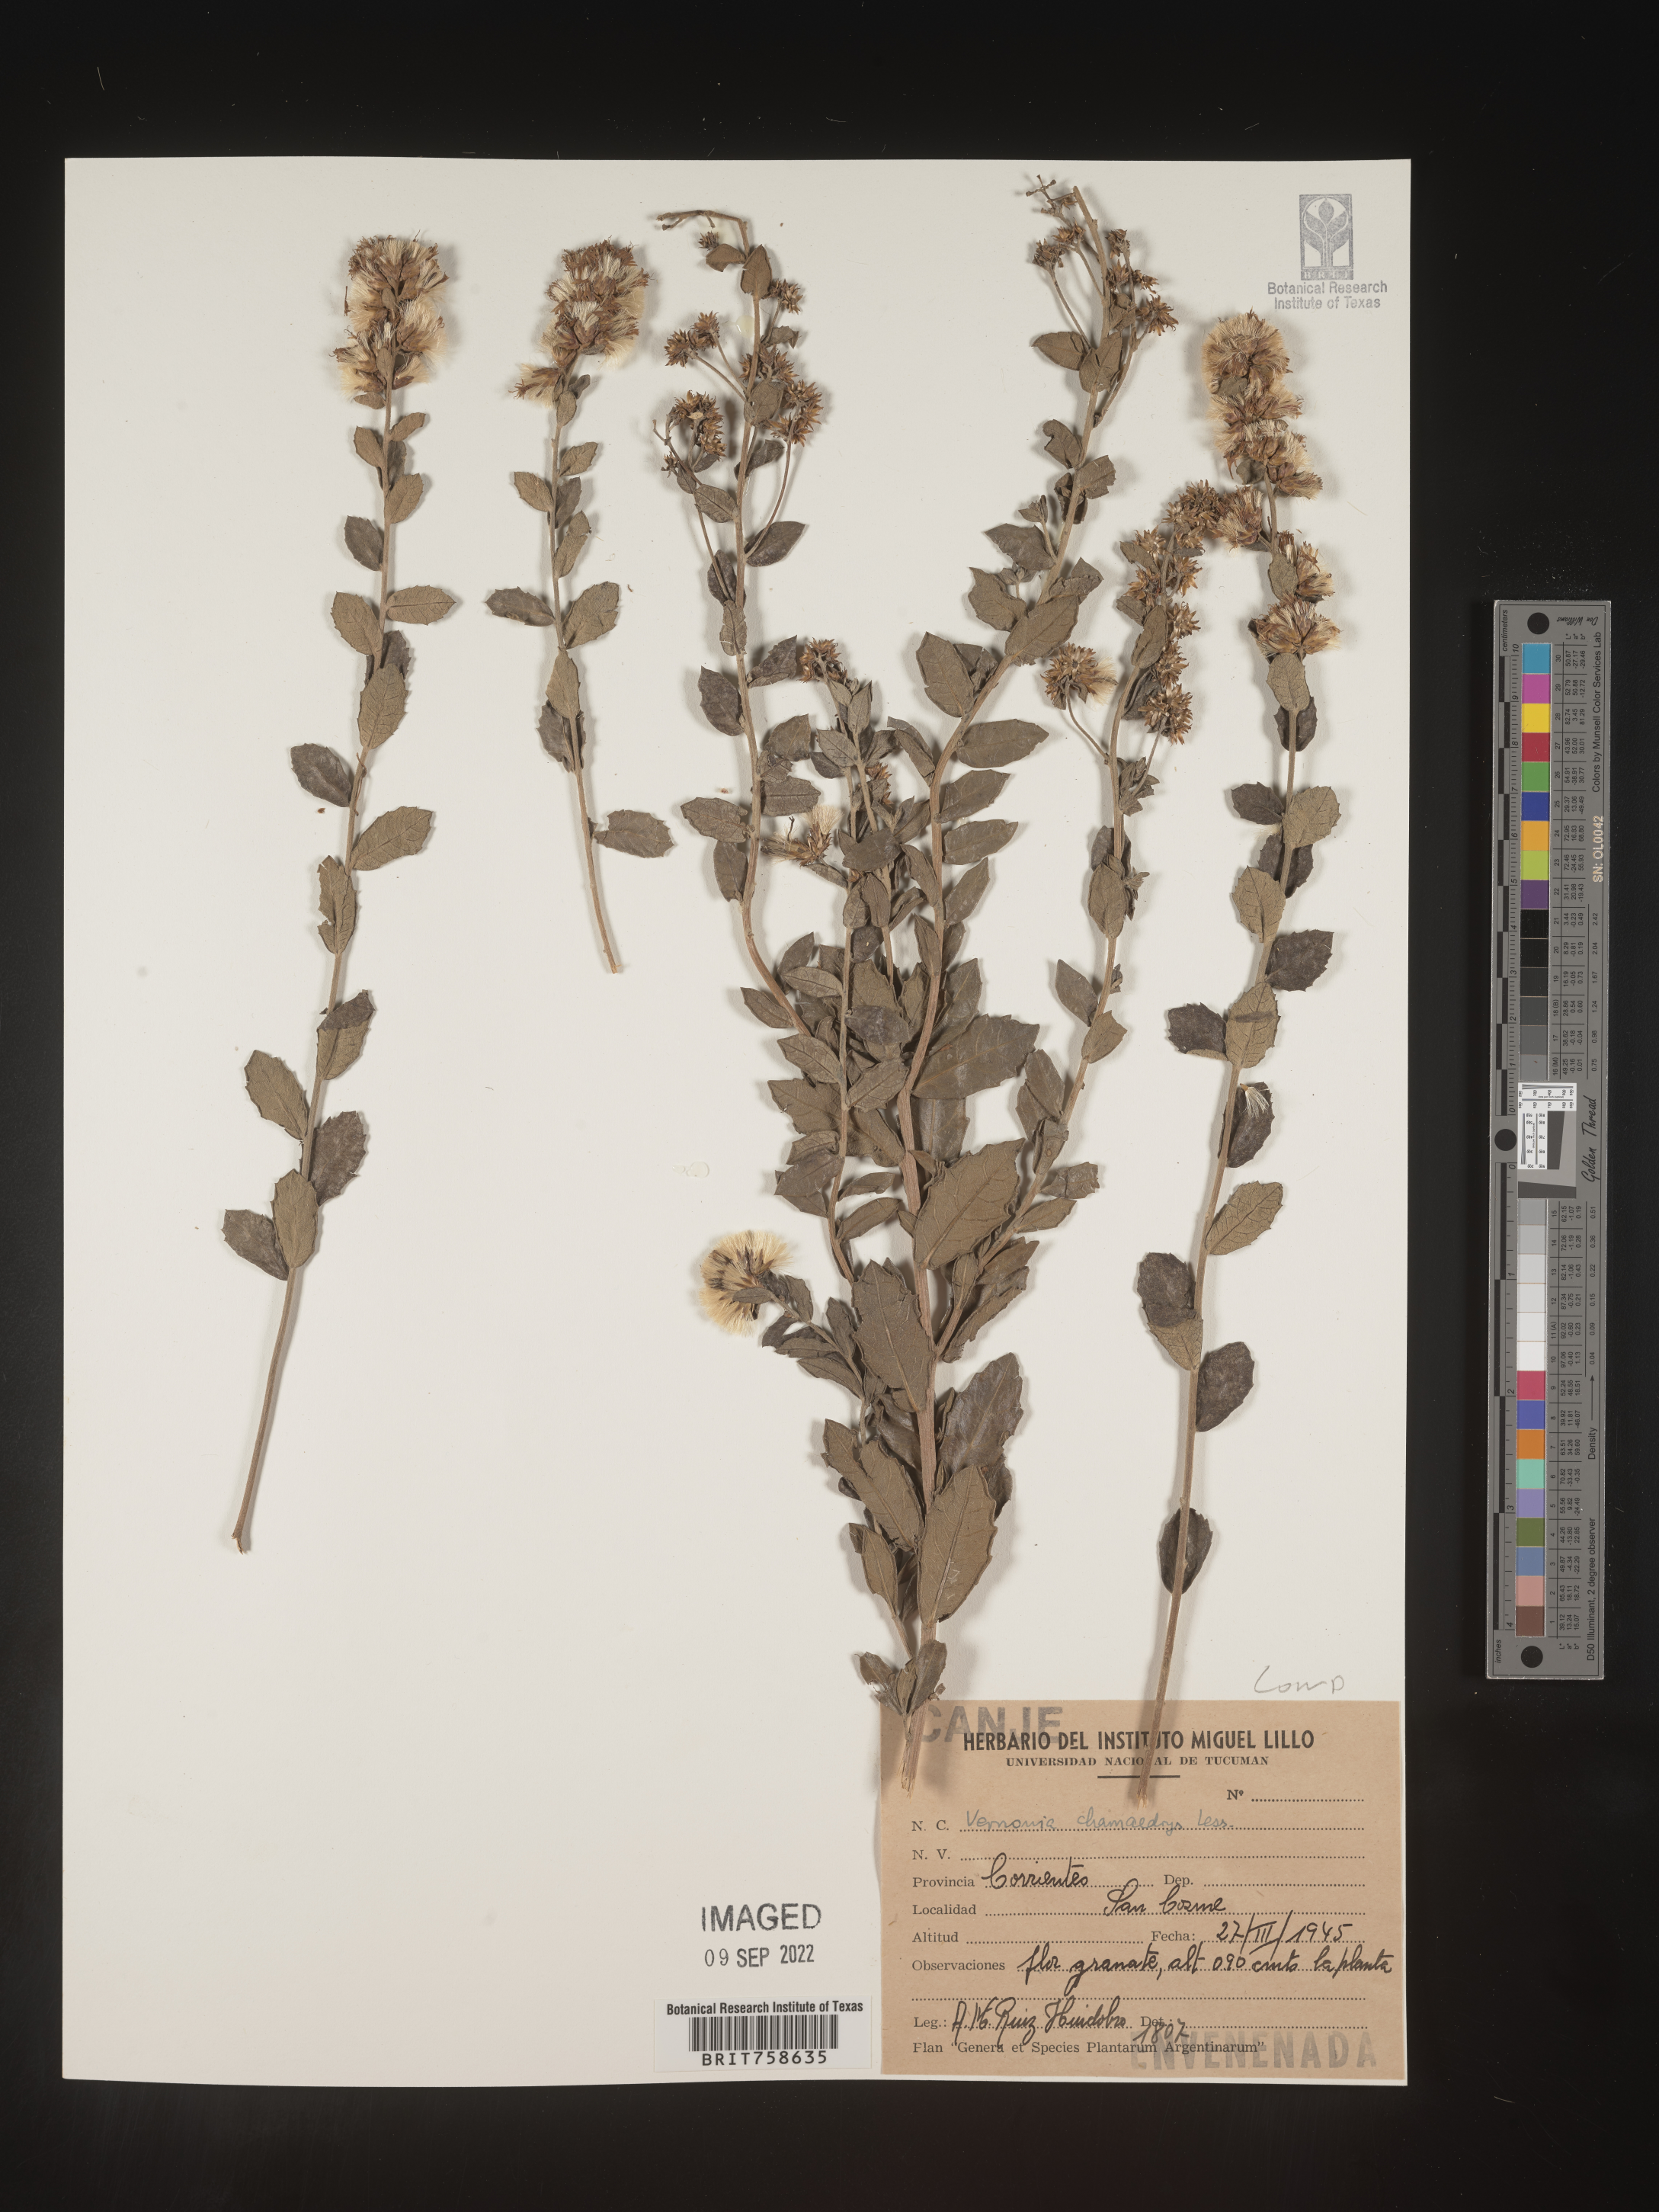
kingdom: Plantae
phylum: Tracheophyta
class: Magnoliopsida
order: Asterales
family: Asteraceae
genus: Vernonia
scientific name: Vernonia
